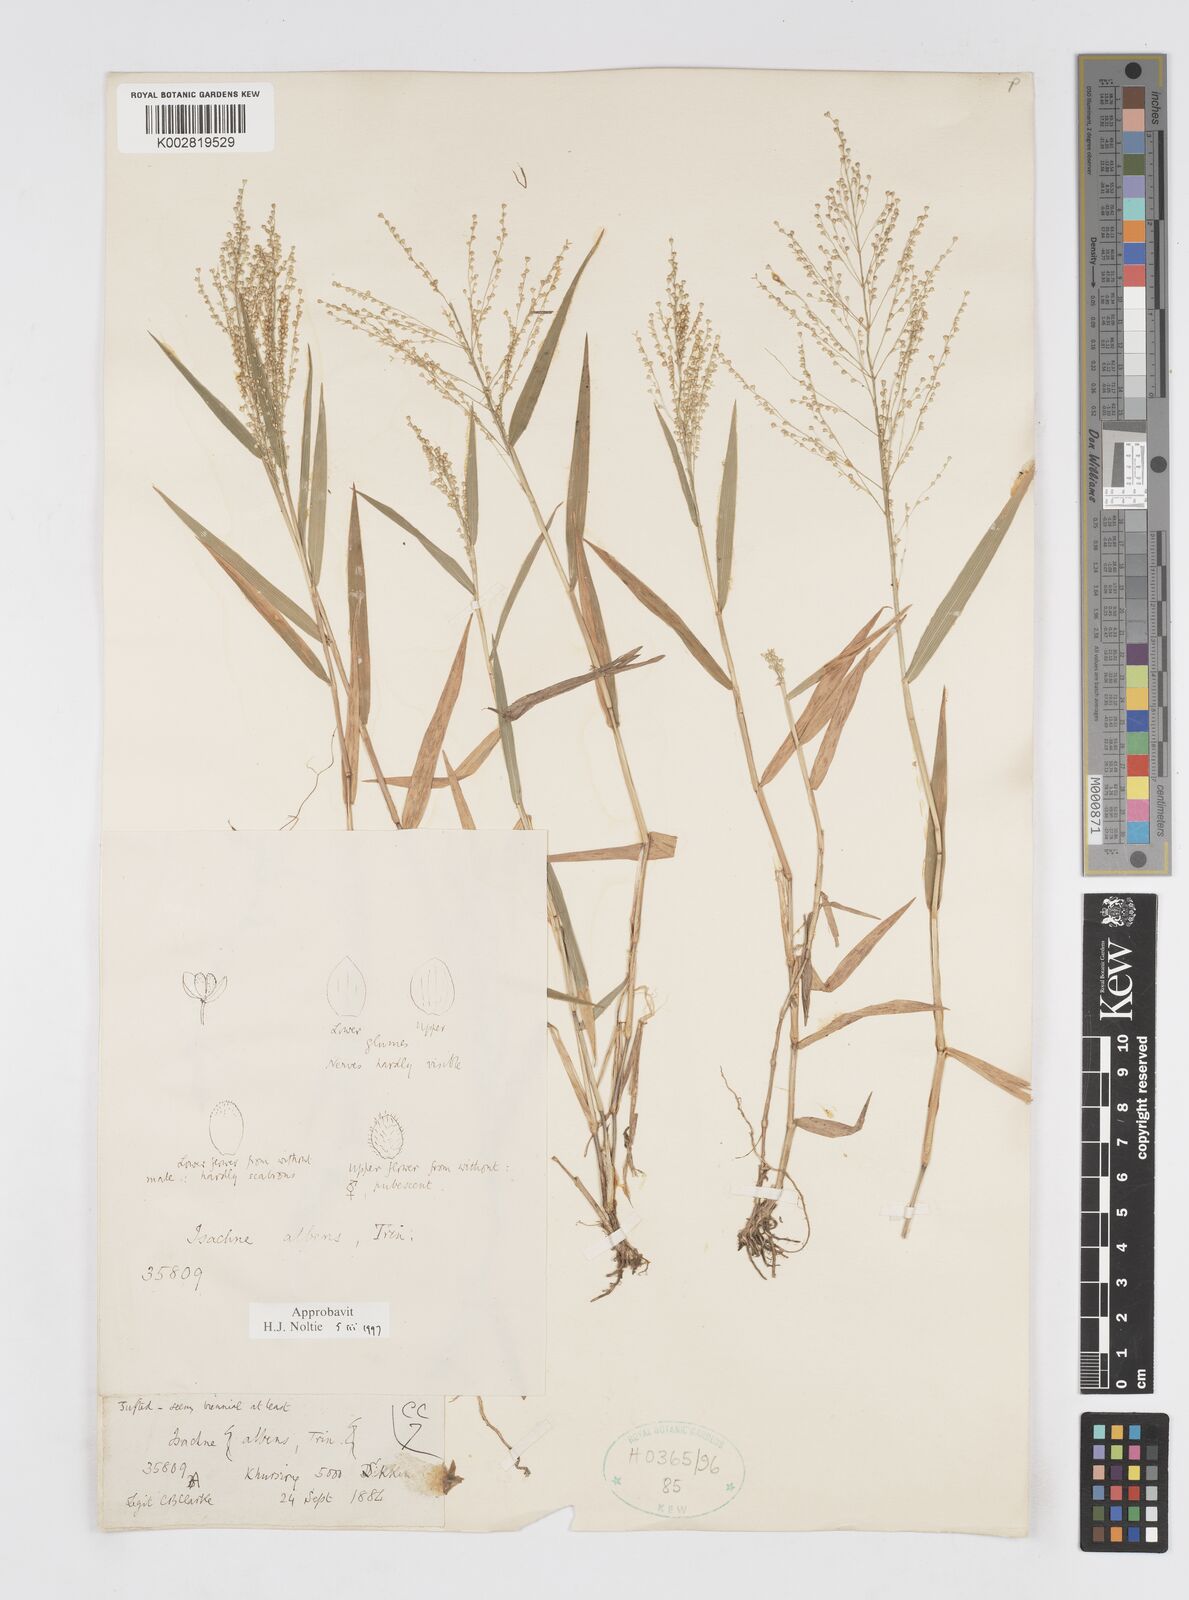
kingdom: Plantae
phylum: Tracheophyta
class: Liliopsida
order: Poales
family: Poaceae
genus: Isachne
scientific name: Isachne albens
